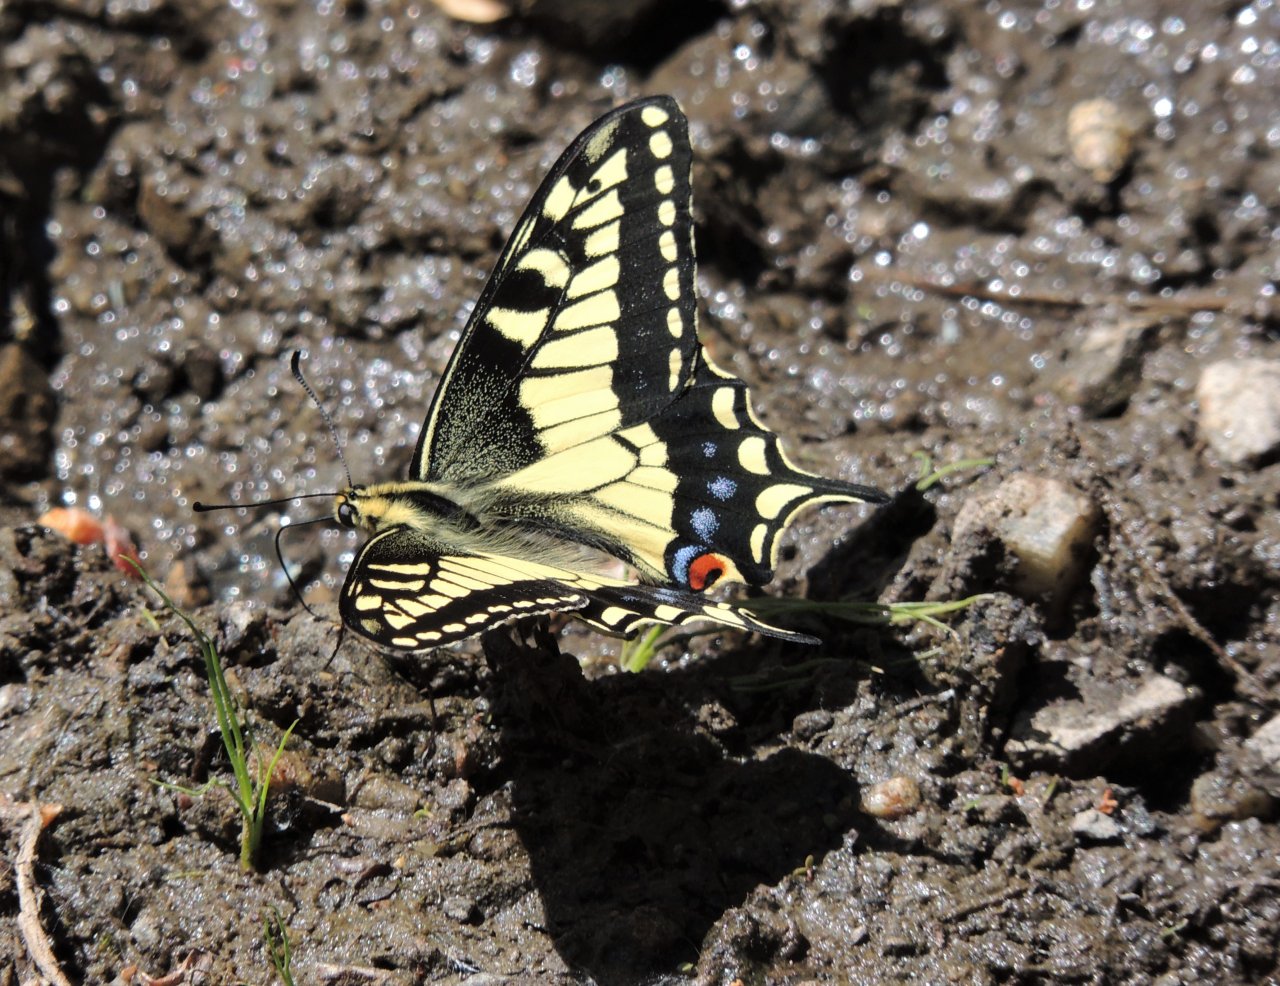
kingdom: Animalia
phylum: Arthropoda
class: Insecta
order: Lepidoptera
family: Papilionidae
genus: Papilio
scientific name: Papilio machaon
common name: Old World Swallowtail
